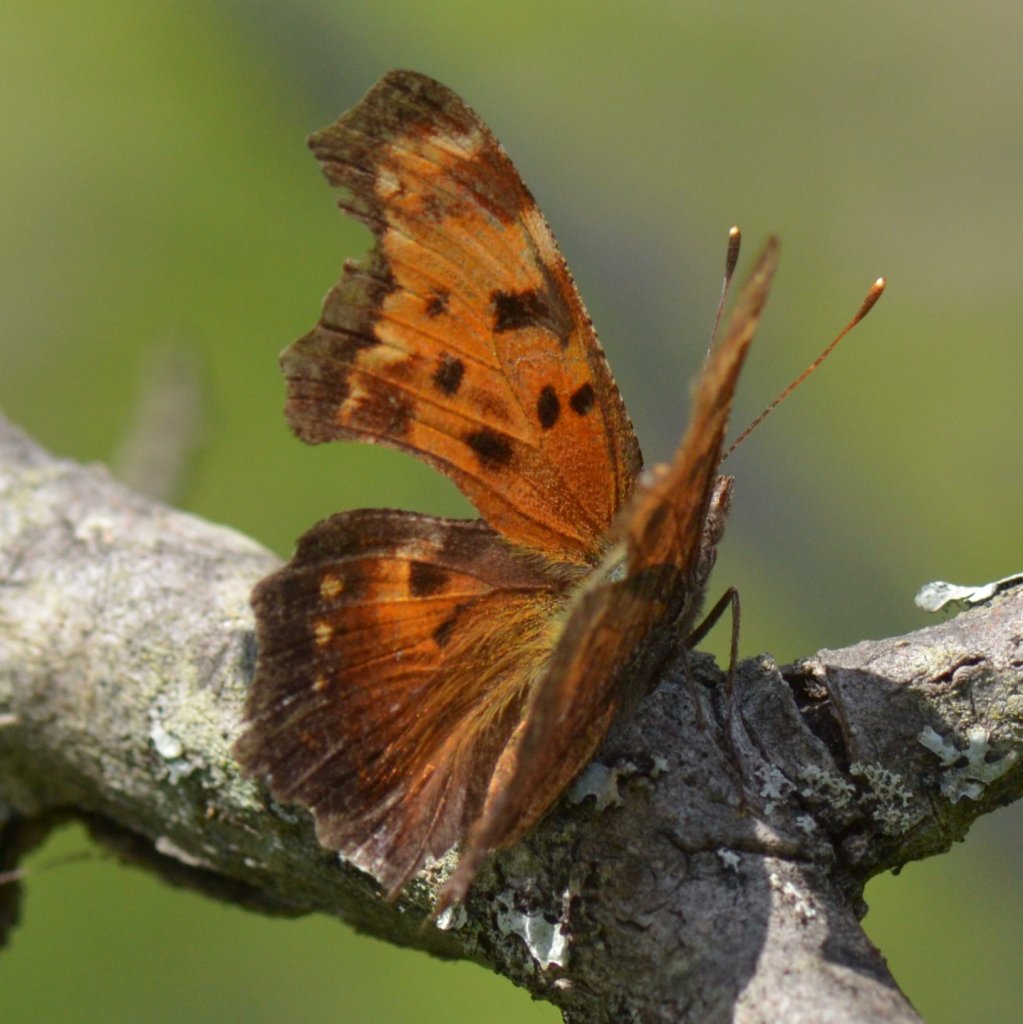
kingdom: Animalia
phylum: Arthropoda
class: Insecta
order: Lepidoptera
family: Nymphalidae
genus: Polygonia
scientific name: Polygonia progne
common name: Gray Comma
